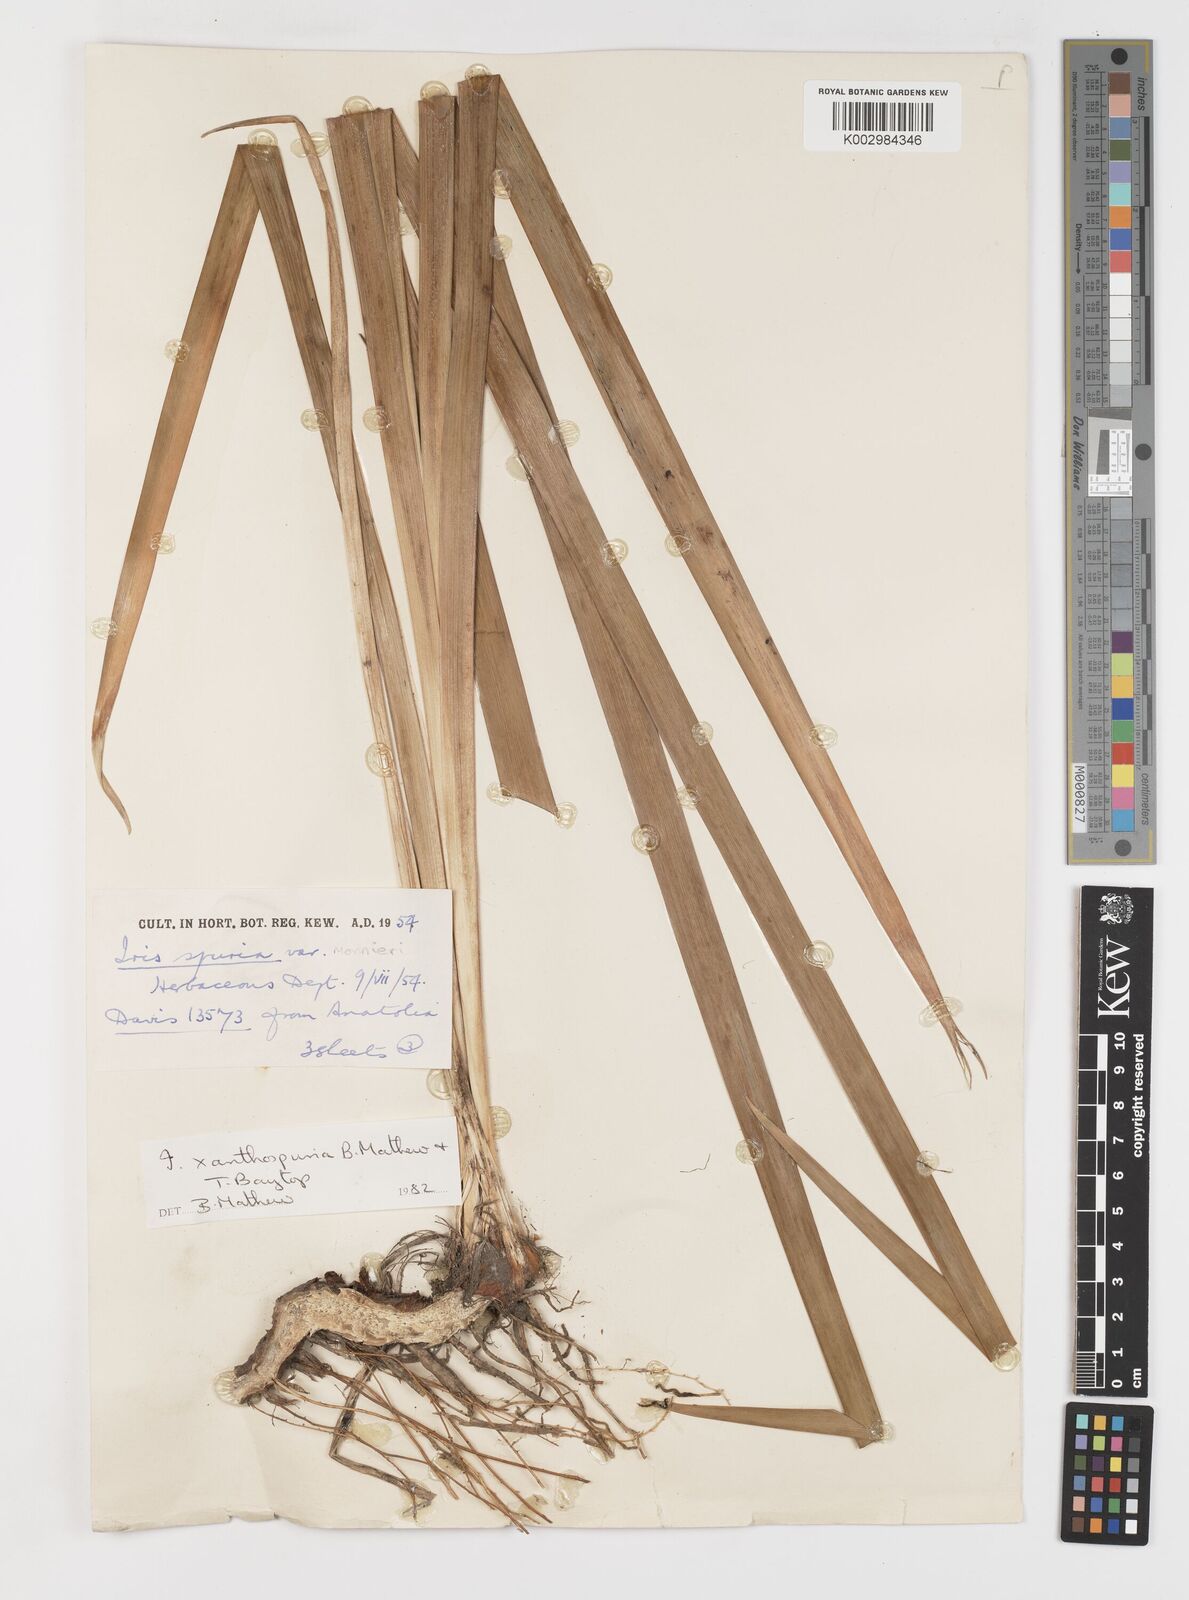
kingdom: Plantae
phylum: Tracheophyta
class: Liliopsida
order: Asparagales
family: Iridaceae
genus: Iris
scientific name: Iris spuria
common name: Blue iris
